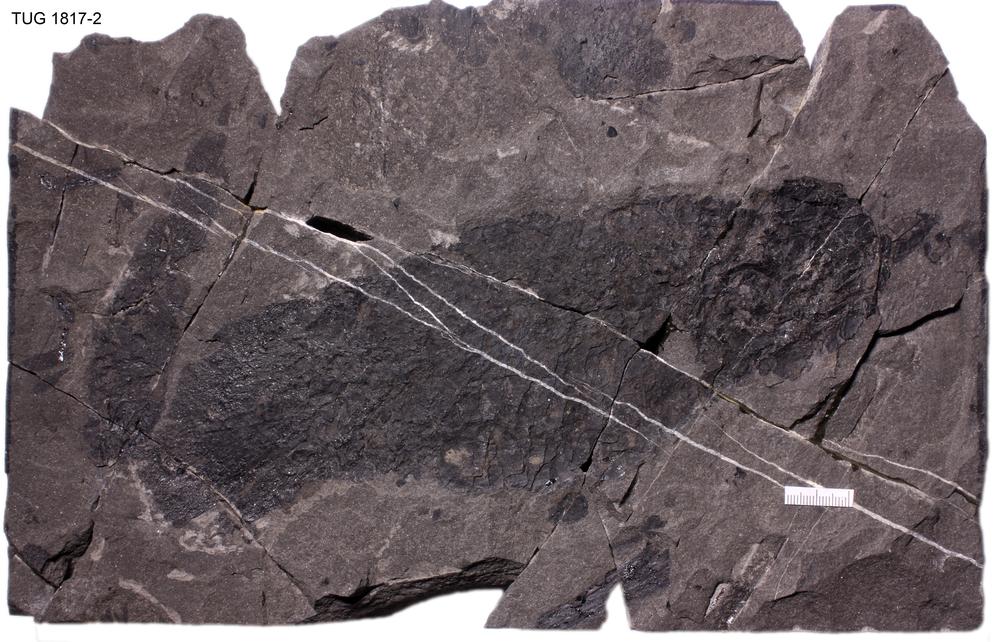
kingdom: Animalia
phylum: Chordata
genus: Microbrachium
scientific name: Microbrachium Microbrachius dicki
